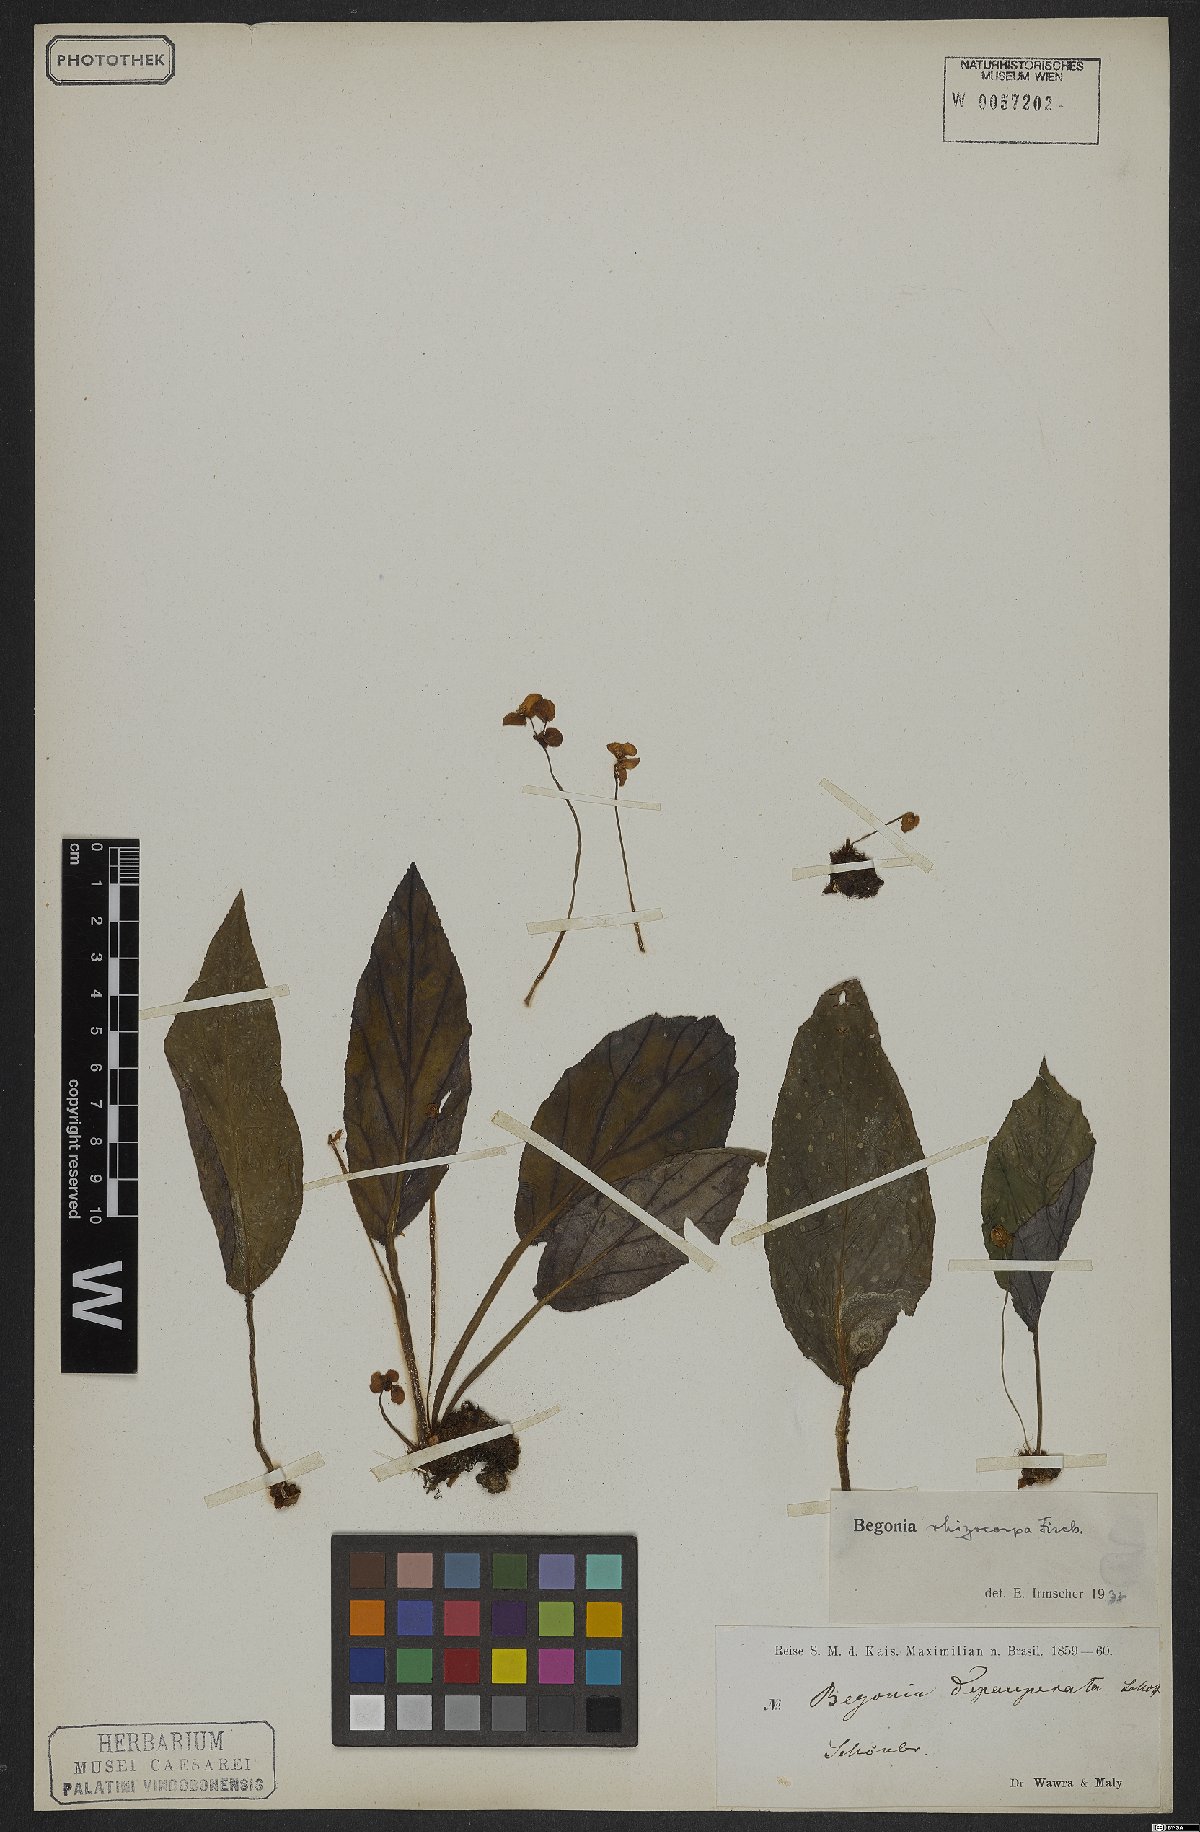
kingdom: Plantae
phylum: Tracheophyta
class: Magnoliopsida
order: Cucurbitales
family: Begoniaceae
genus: Begonia
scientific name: Begonia depauperata
